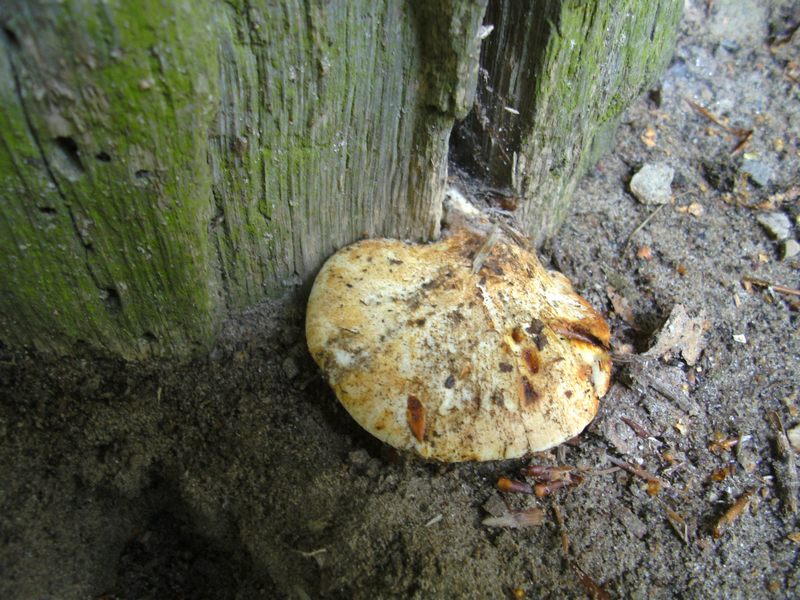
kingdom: Fungi
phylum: Basidiomycota
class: Agaricomycetes
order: Polyporales
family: Fomitopsidaceae
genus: Buglossoporus
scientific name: Buglossoporus quercinus
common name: egetunge
